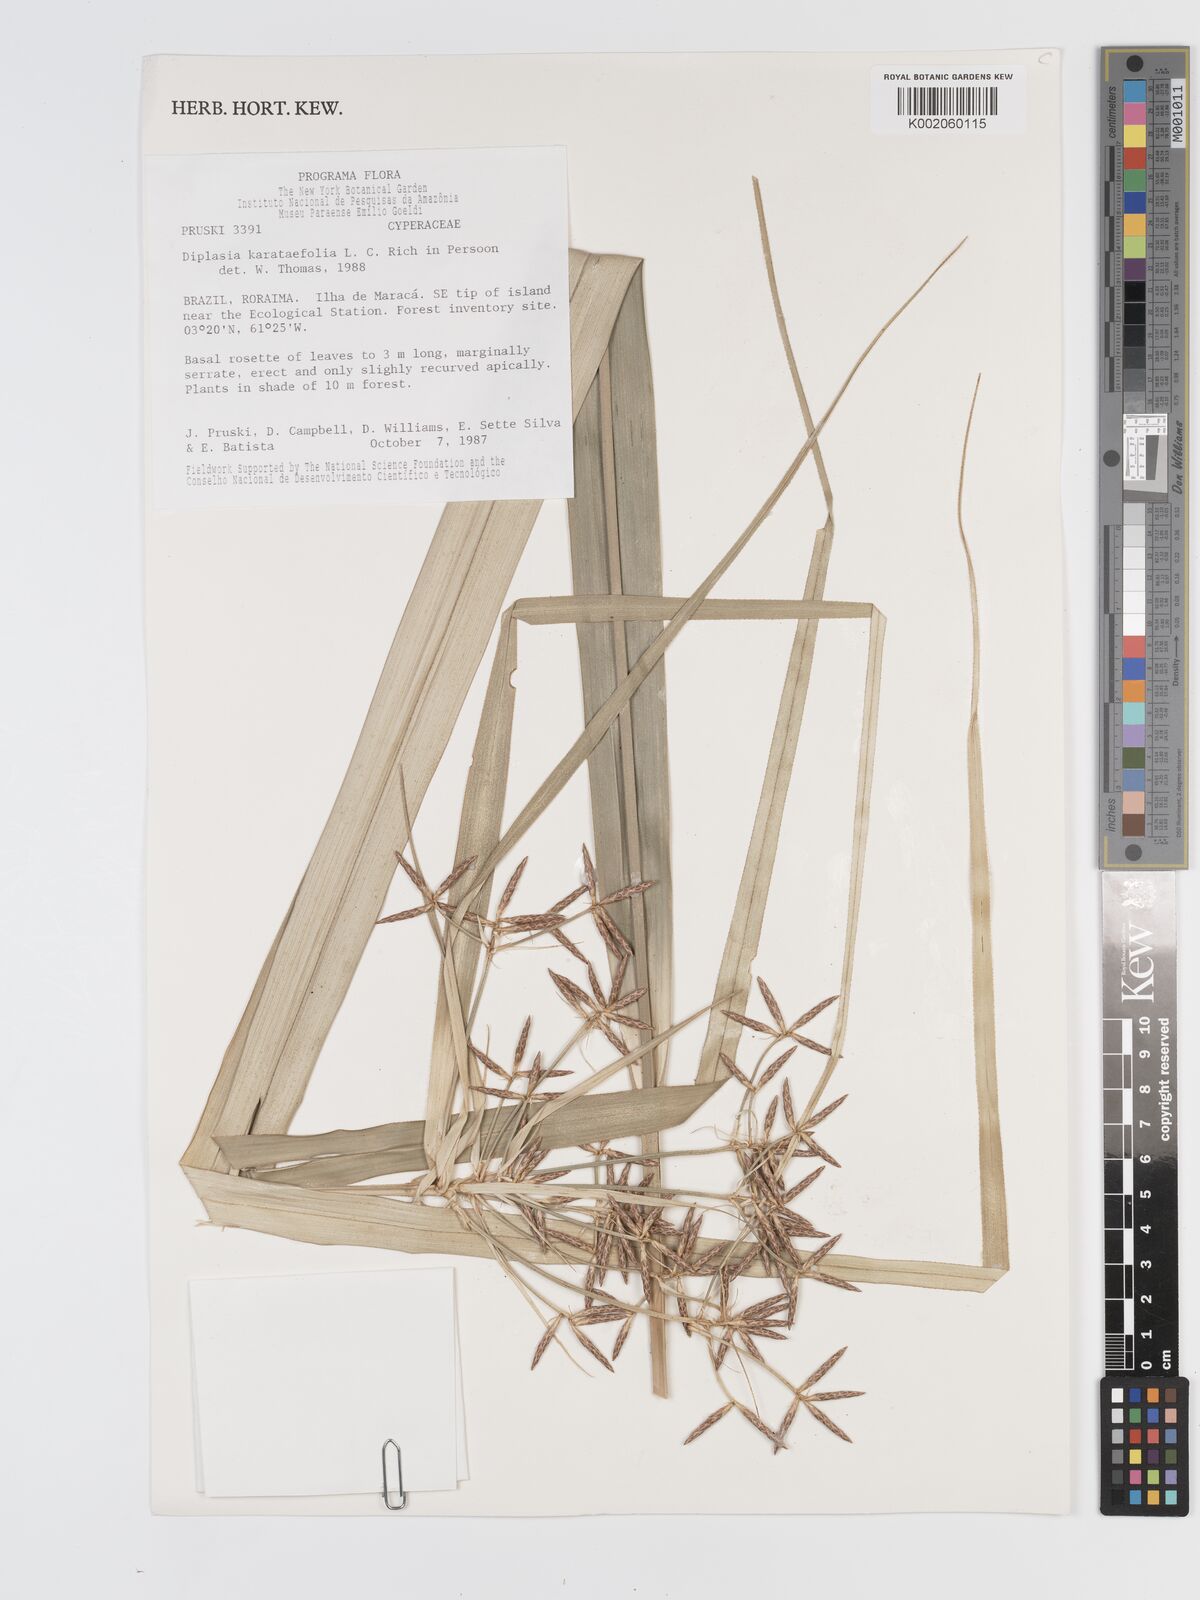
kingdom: Plantae
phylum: Tracheophyta
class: Liliopsida
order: Poales
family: Cyperaceae
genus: Diplasia
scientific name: Diplasia karatifolia
